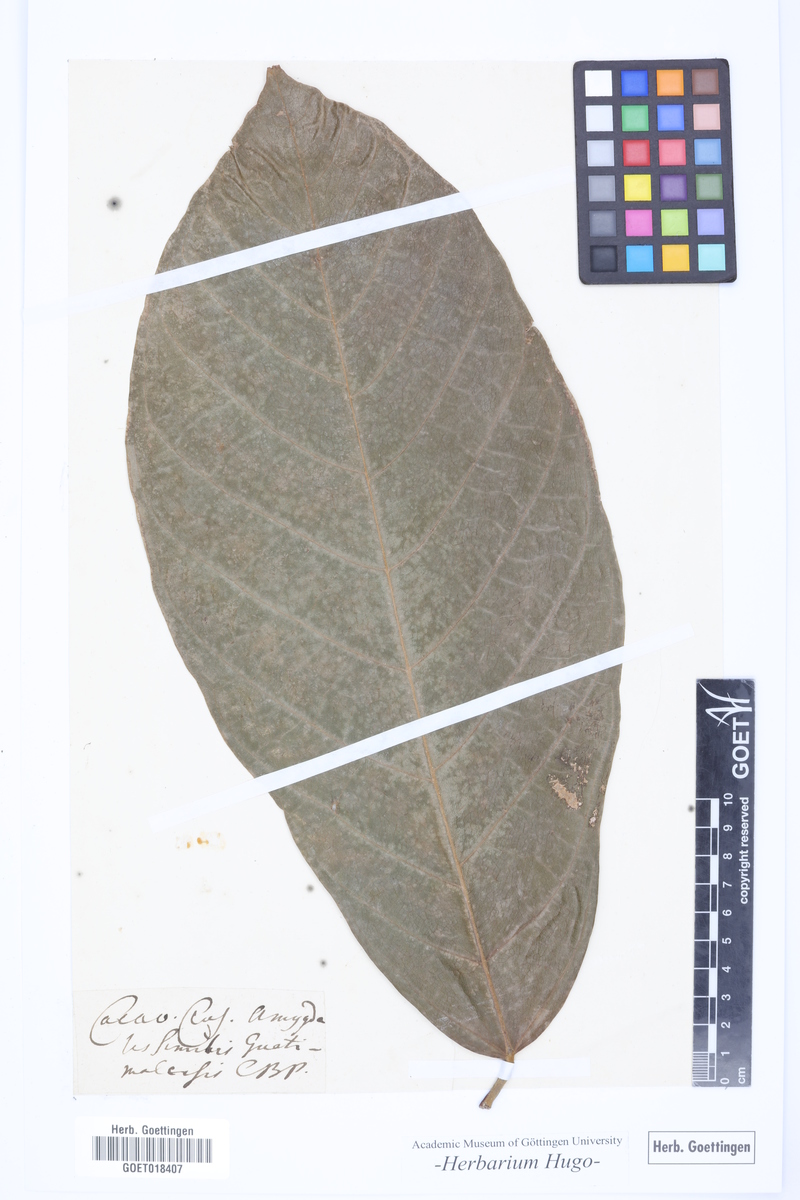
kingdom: Plantae
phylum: Tracheophyta
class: Magnoliopsida
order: Malvales
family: Malvaceae
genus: Theobroma
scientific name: Theobroma cacao
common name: Cocoa
